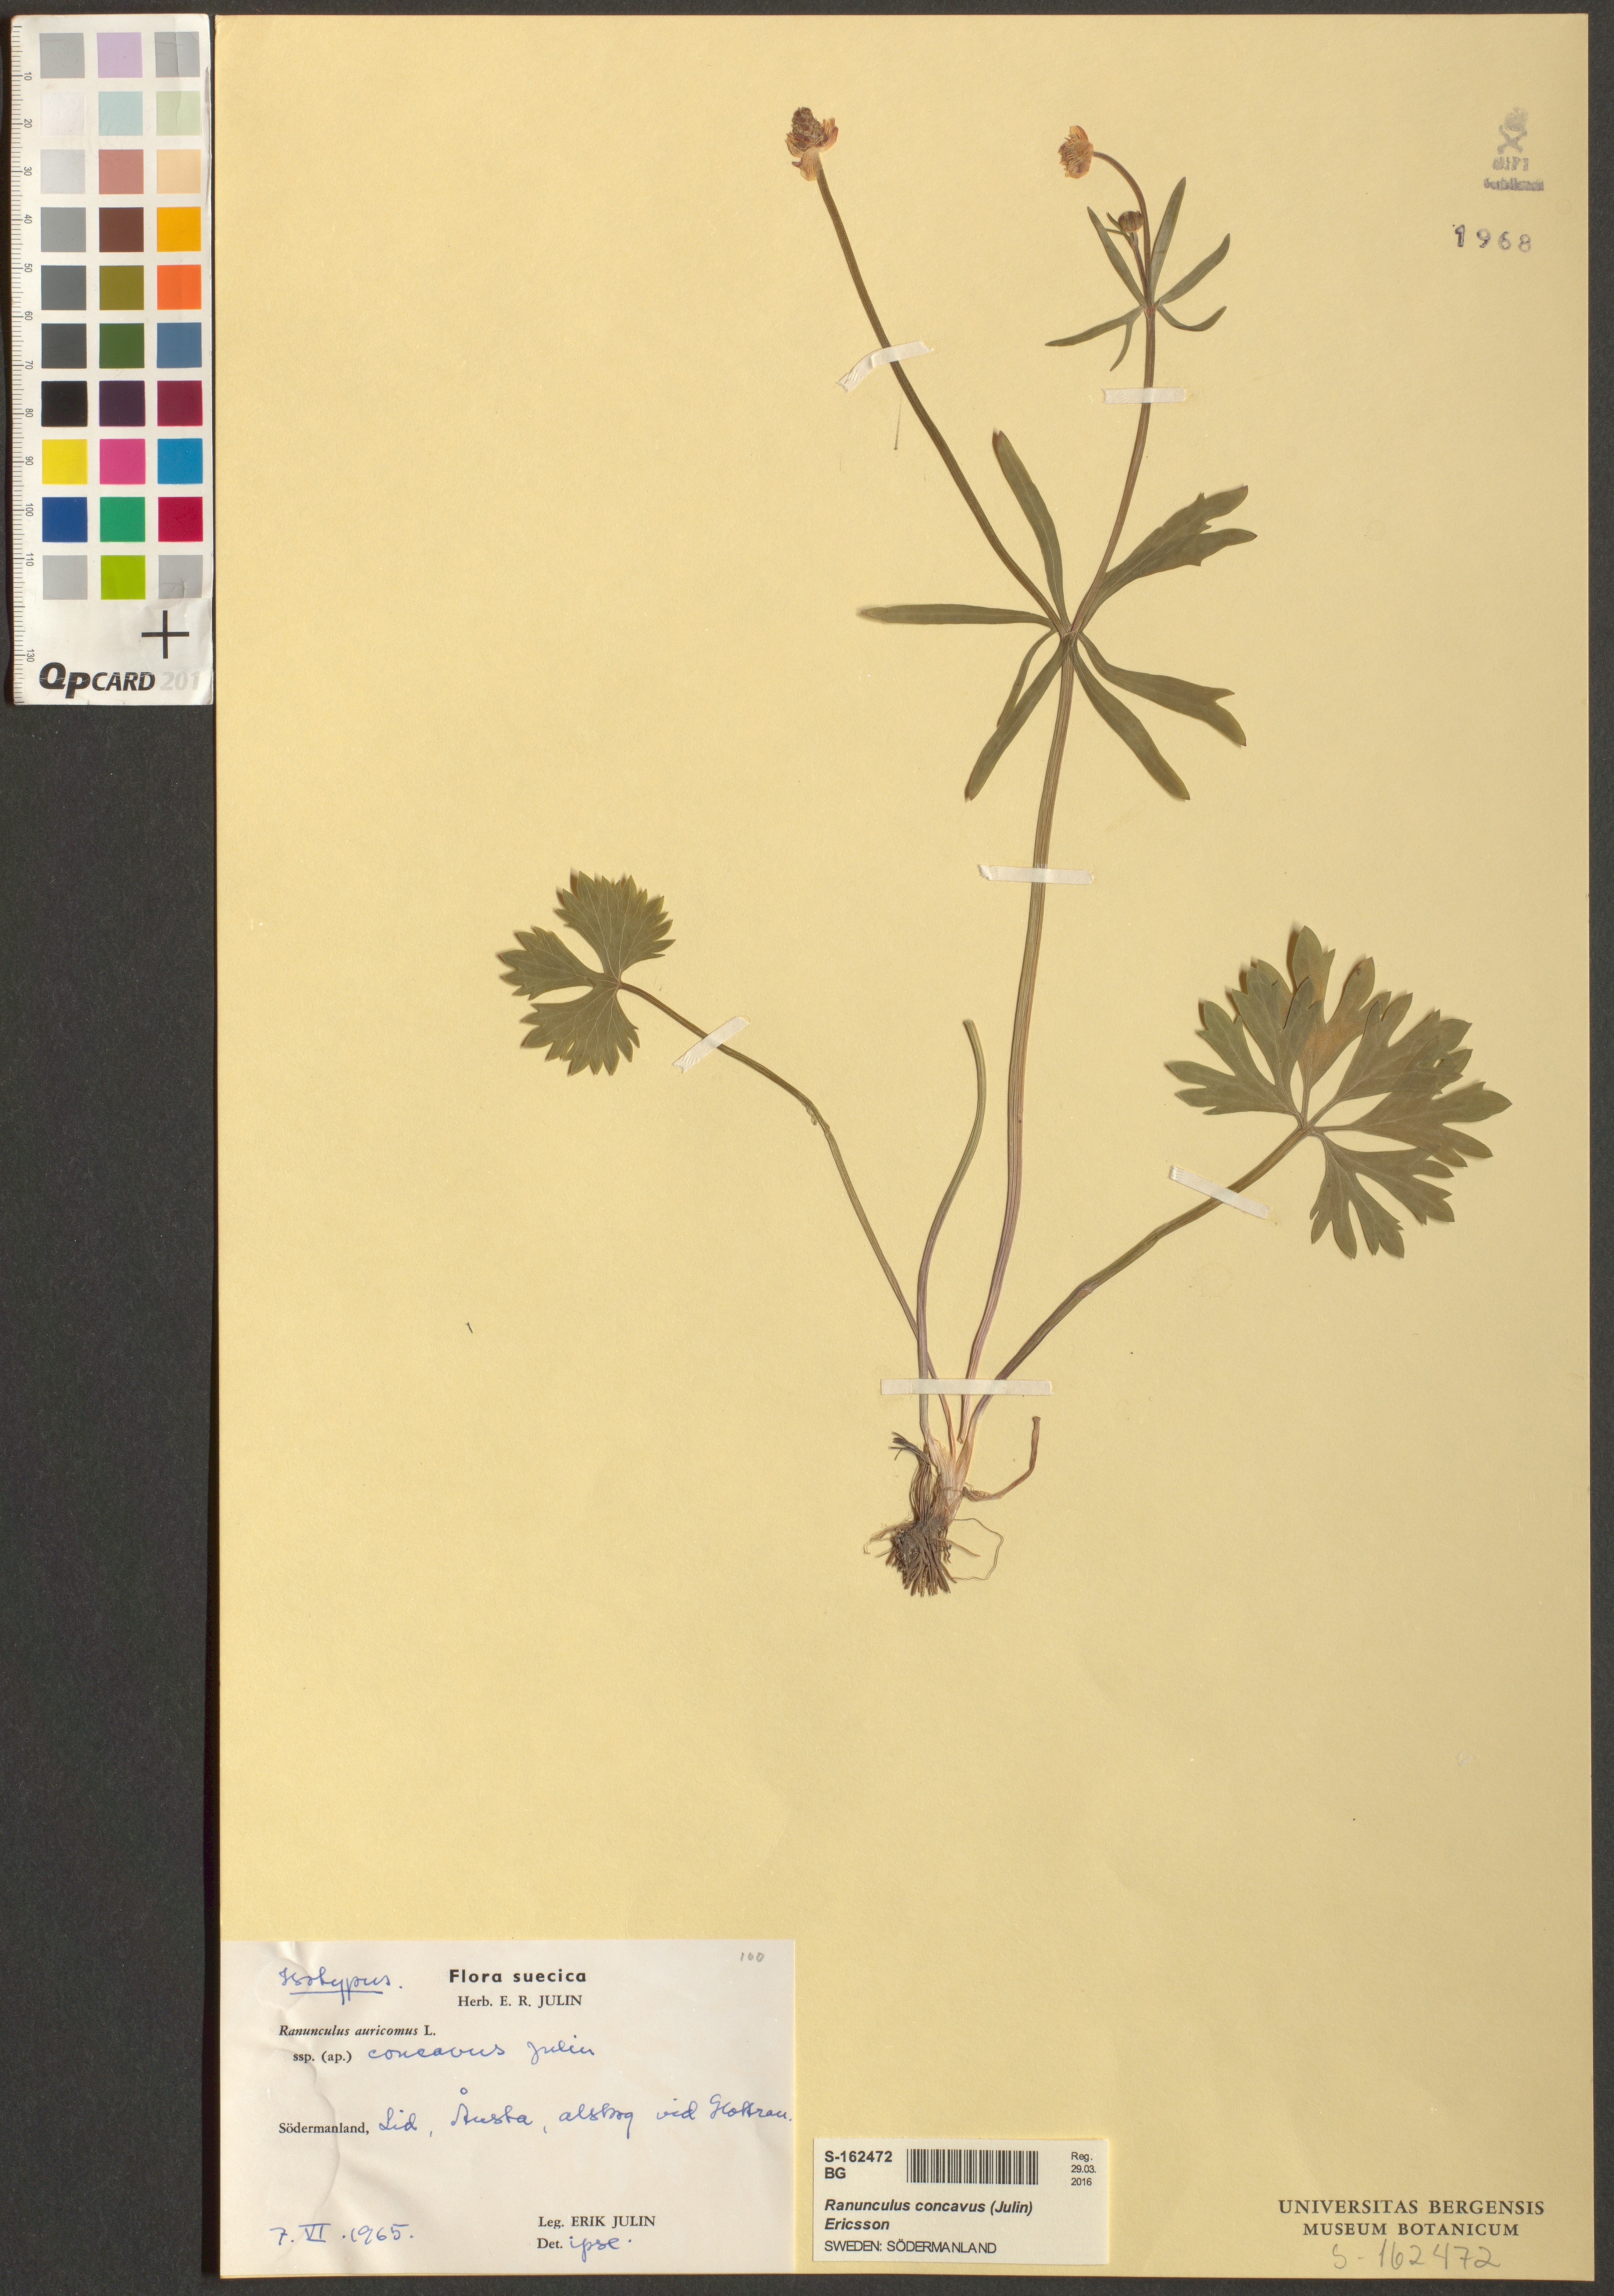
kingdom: Plantae
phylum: Tracheophyta
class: Magnoliopsida
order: Ranunculales
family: Ranunculaceae
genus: Ranunculus
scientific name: Ranunculus concavus
